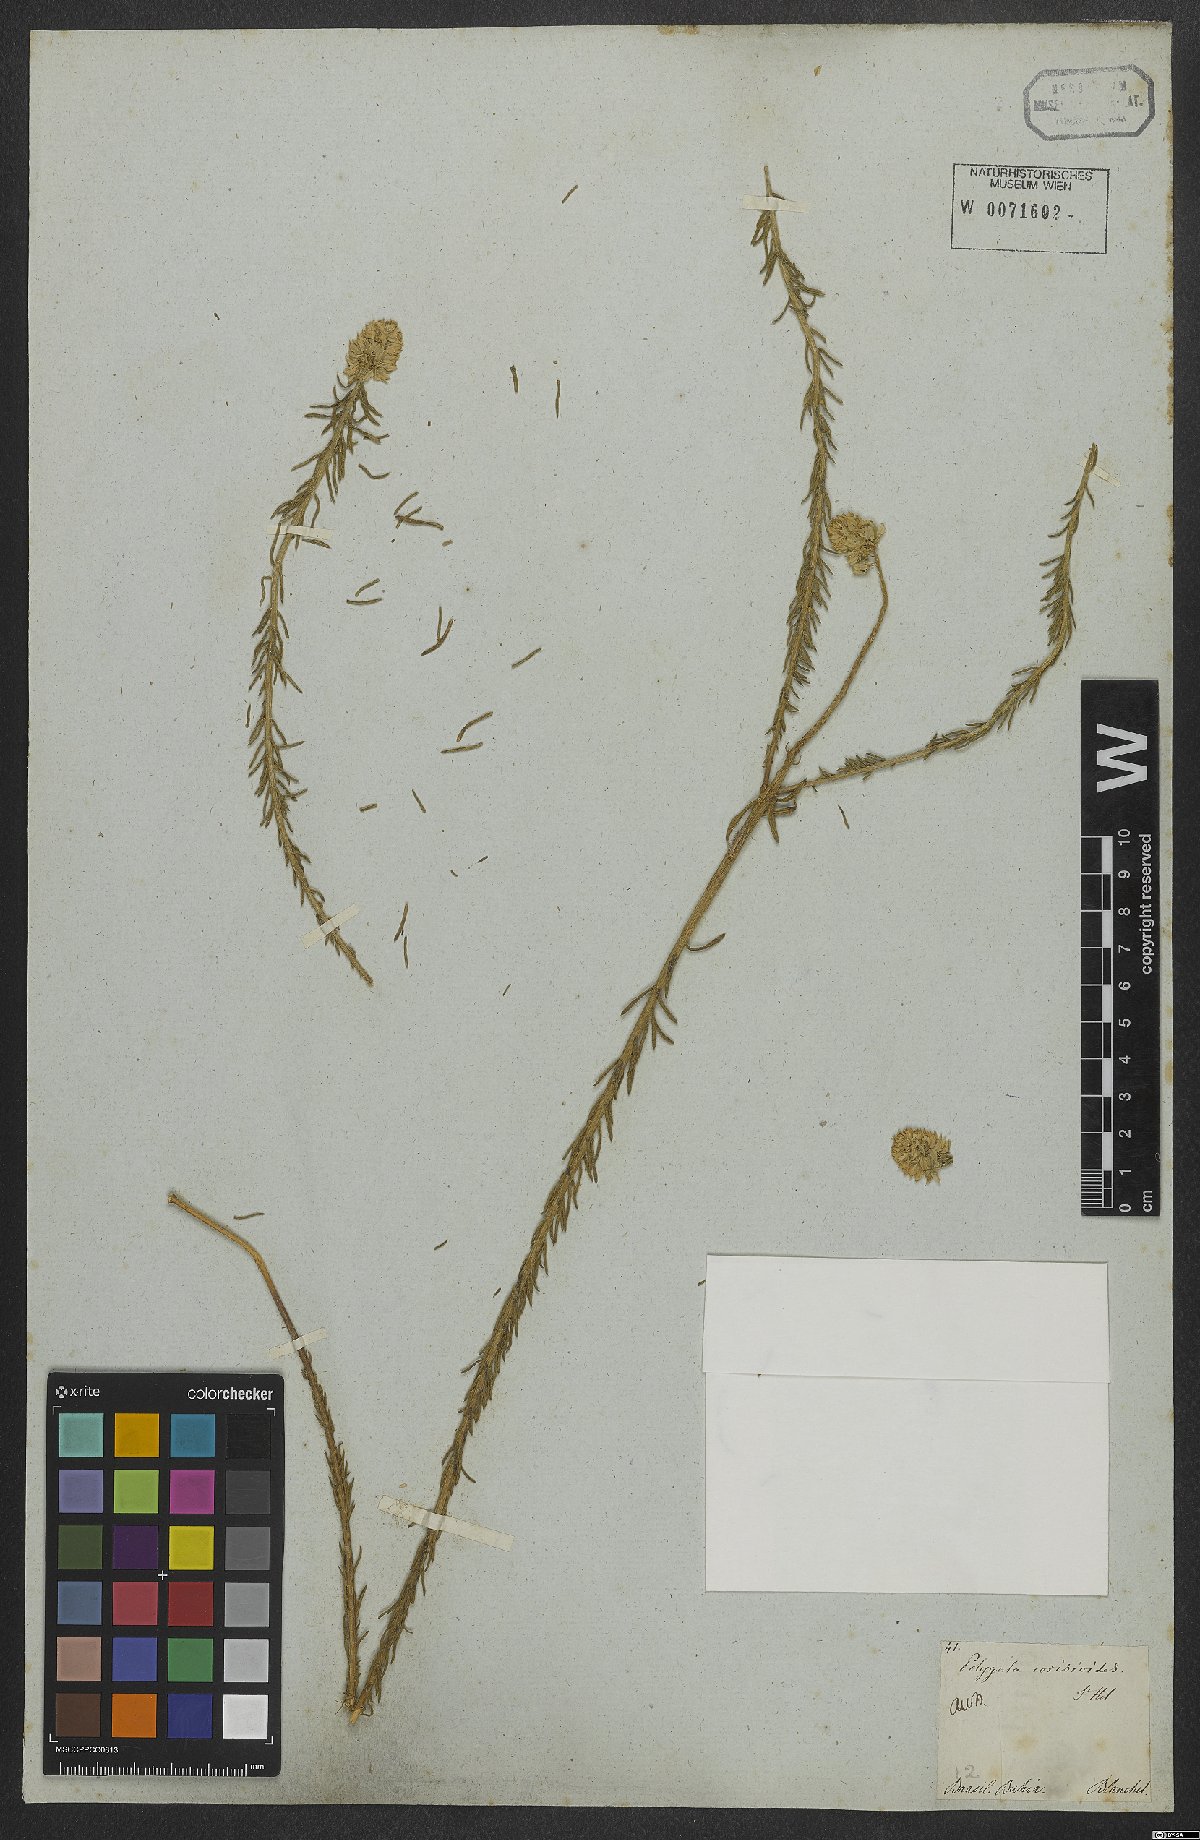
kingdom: Plantae
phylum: Tracheophyta
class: Magnoliopsida
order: Fabales
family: Polygalaceae
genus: Polygala
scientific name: Polygala cyparissias
